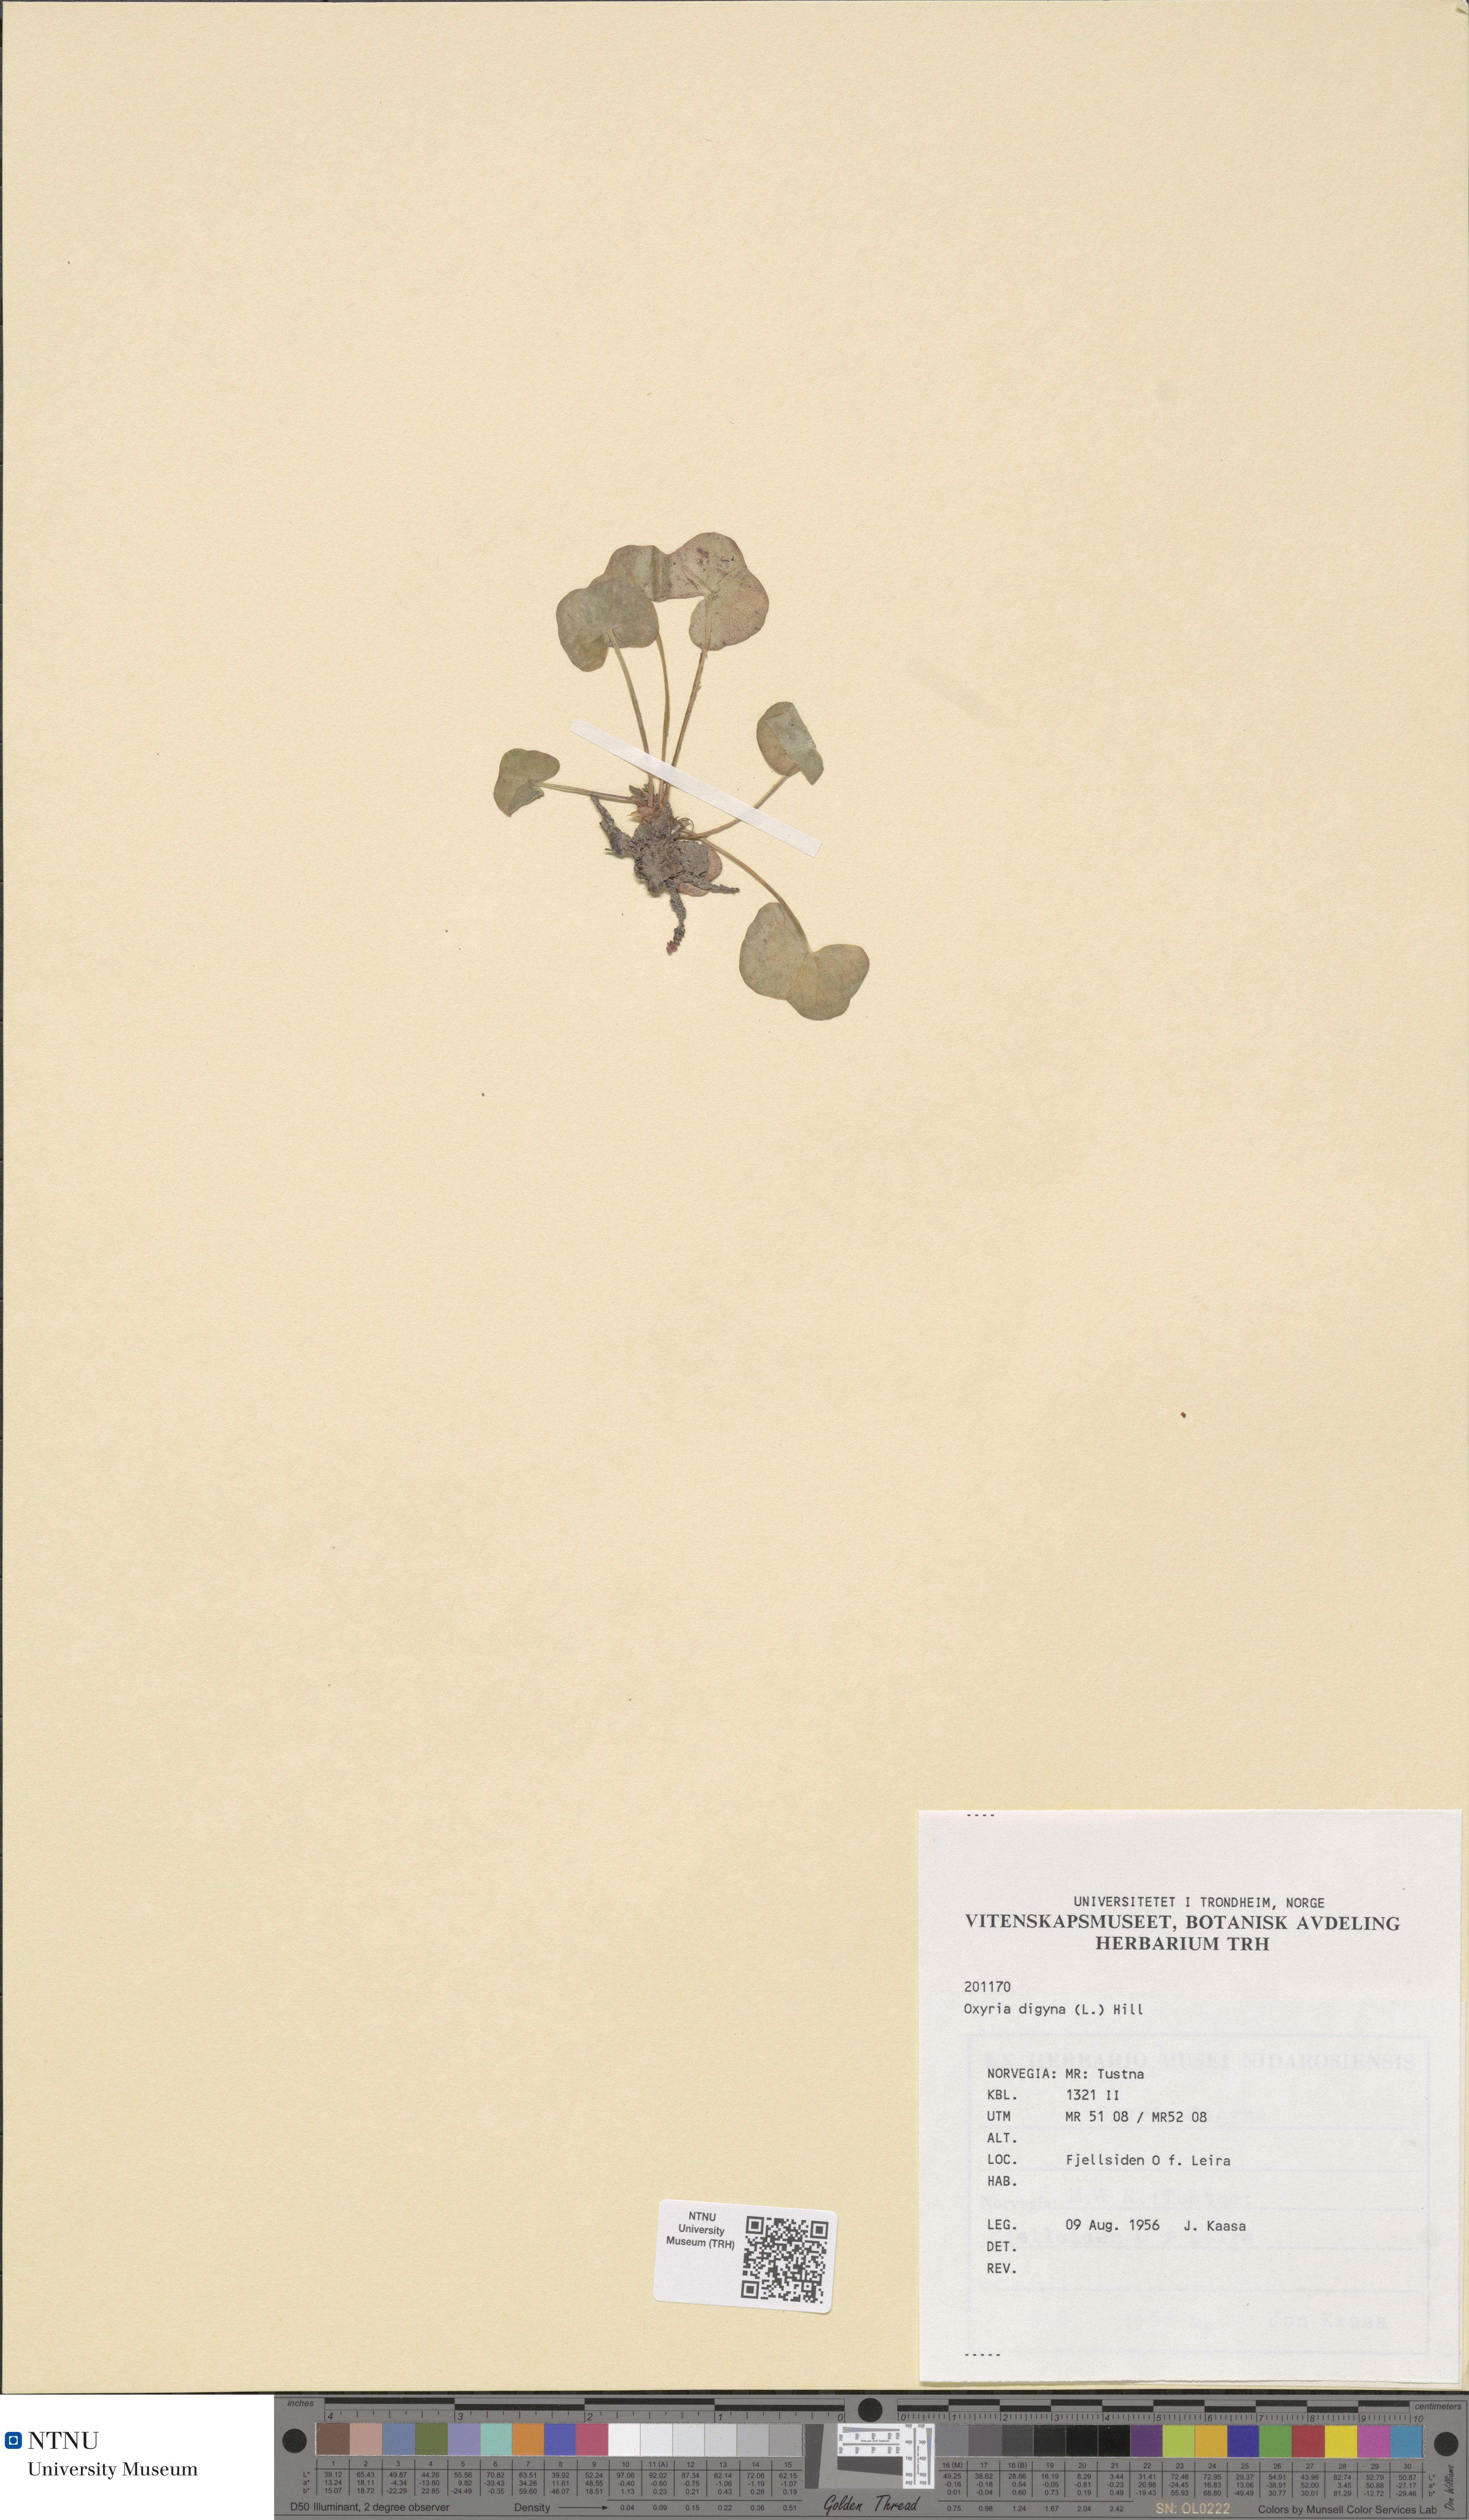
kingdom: Plantae
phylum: Tracheophyta
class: Magnoliopsida
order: Caryophyllales
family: Polygonaceae
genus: Oxyria
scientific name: Oxyria digyna
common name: Alpine mountain-sorrel
